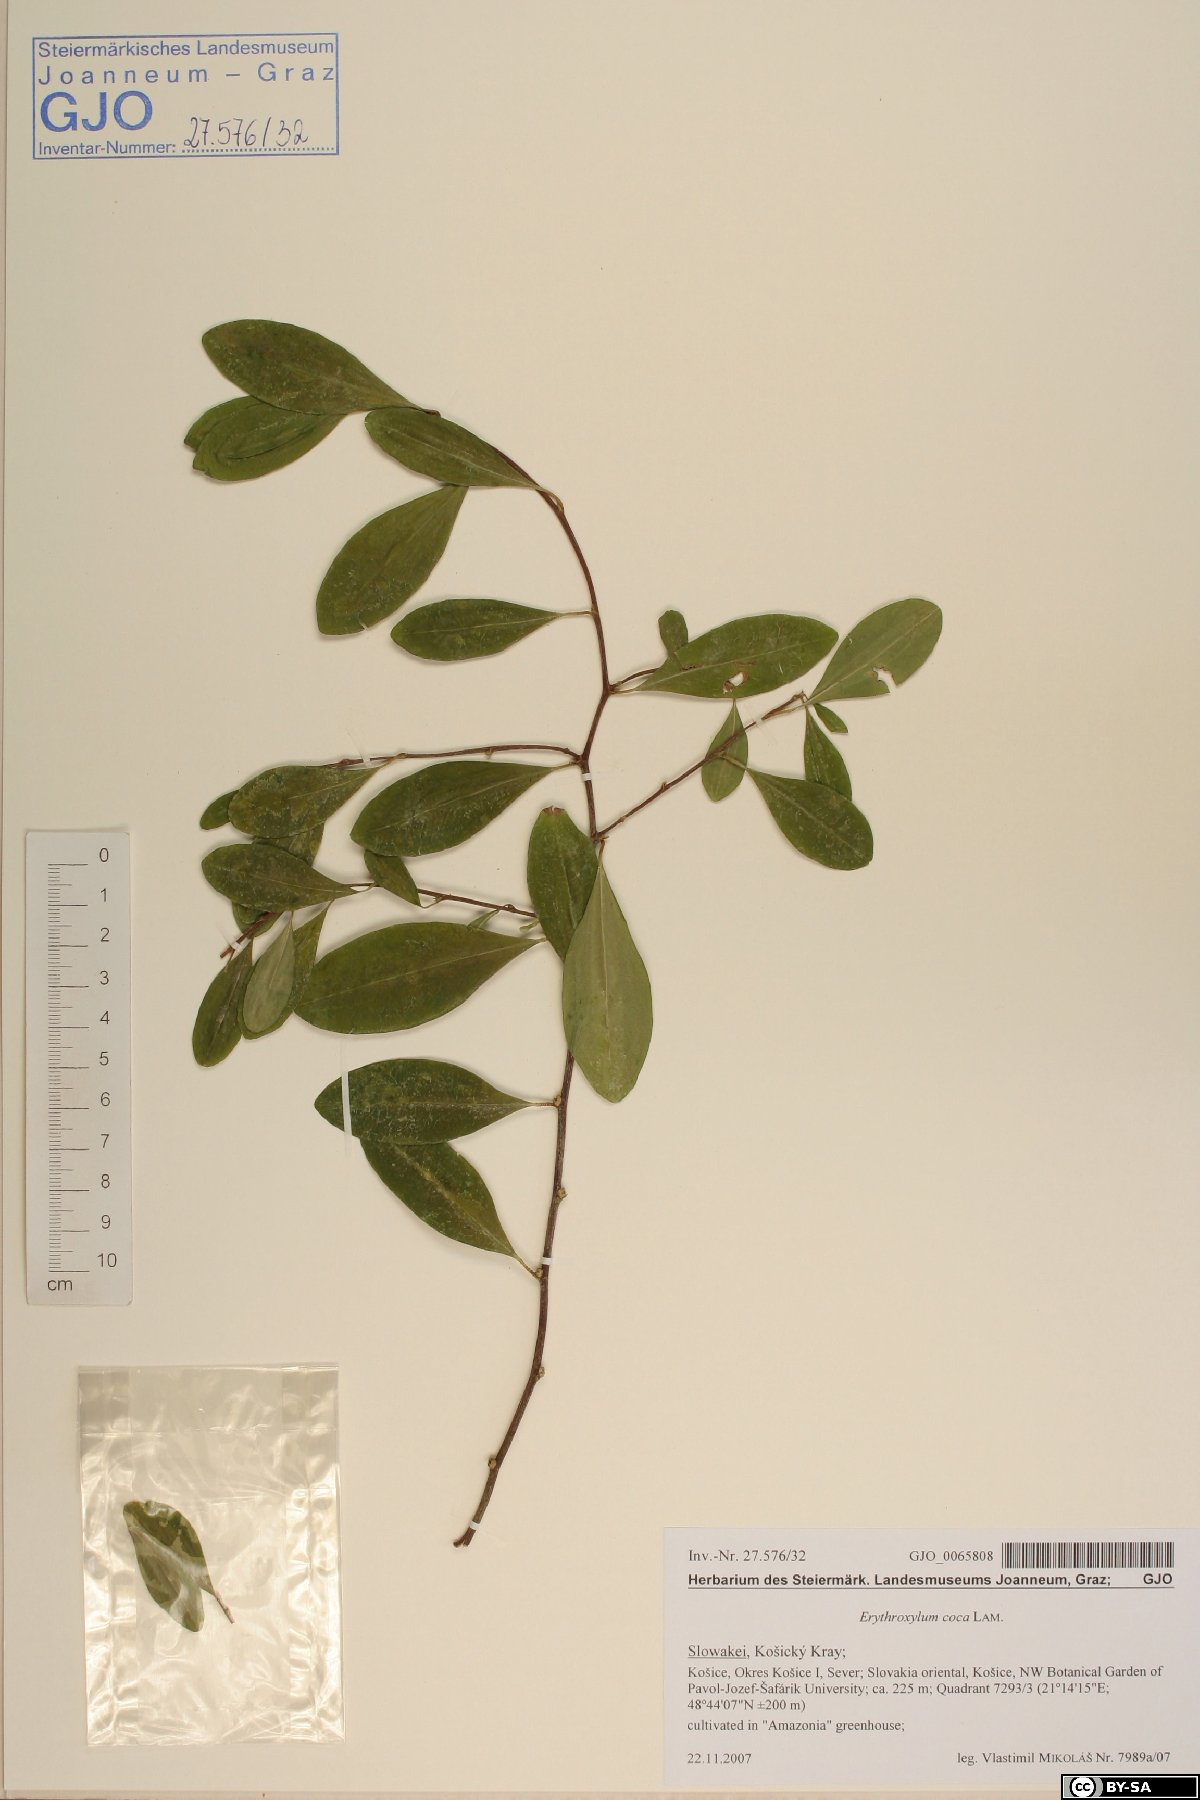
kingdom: Plantae
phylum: Tracheophyta
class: Magnoliopsida
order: Malpighiales
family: Erythroxylaceae
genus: Erythroxylum
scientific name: Erythroxylum coca
